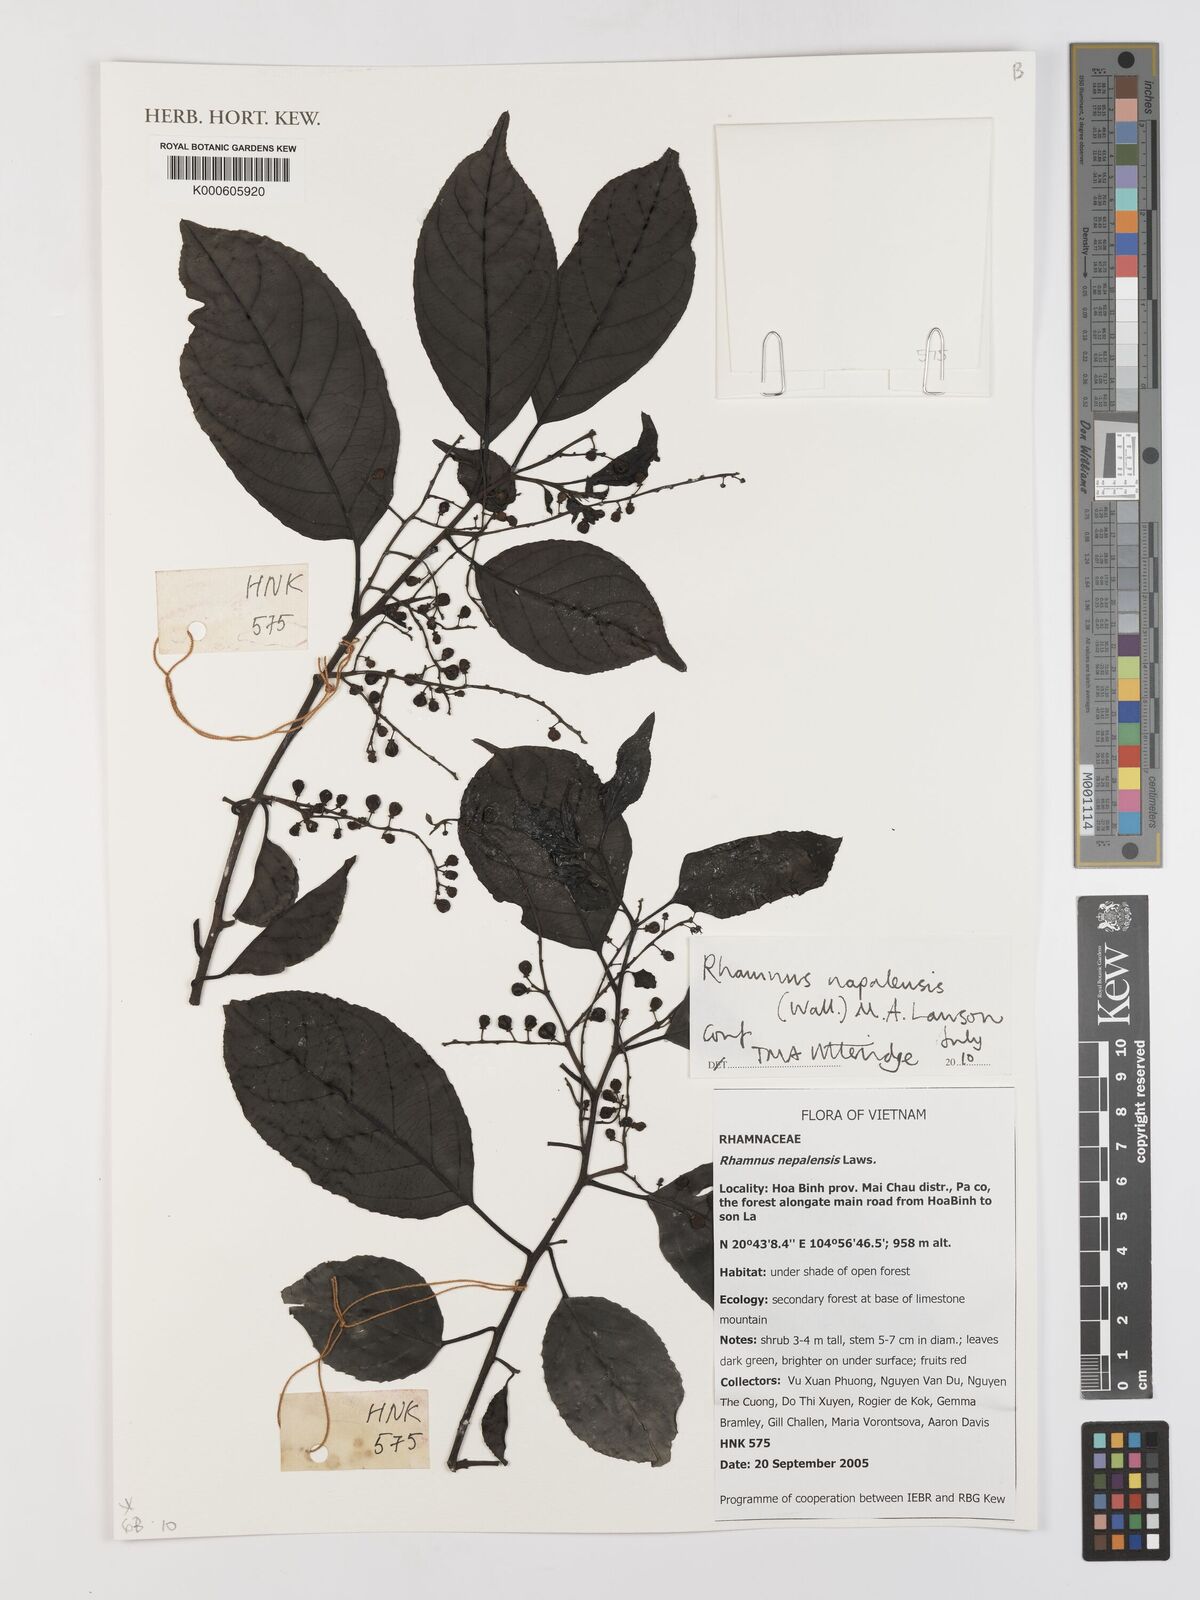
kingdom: Plantae
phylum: Tracheophyta
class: Magnoliopsida
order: Rosales
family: Rhamnaceae
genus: Rhamnus
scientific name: Rhamnus napalensis
